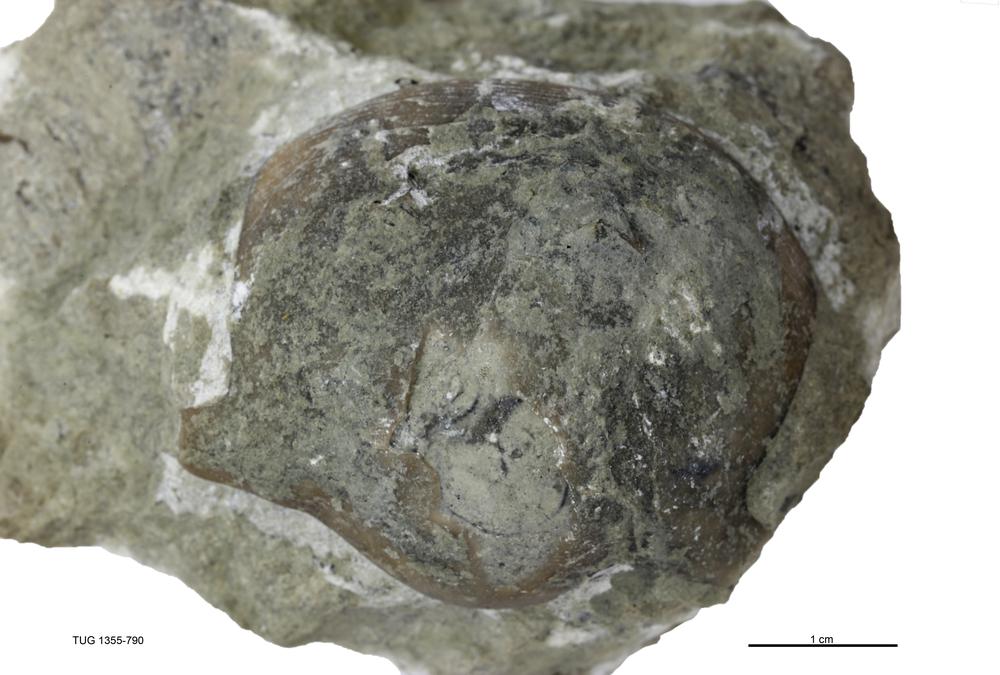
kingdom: Animalia
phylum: Arthropoda
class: Trilobita
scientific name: Trilobita
